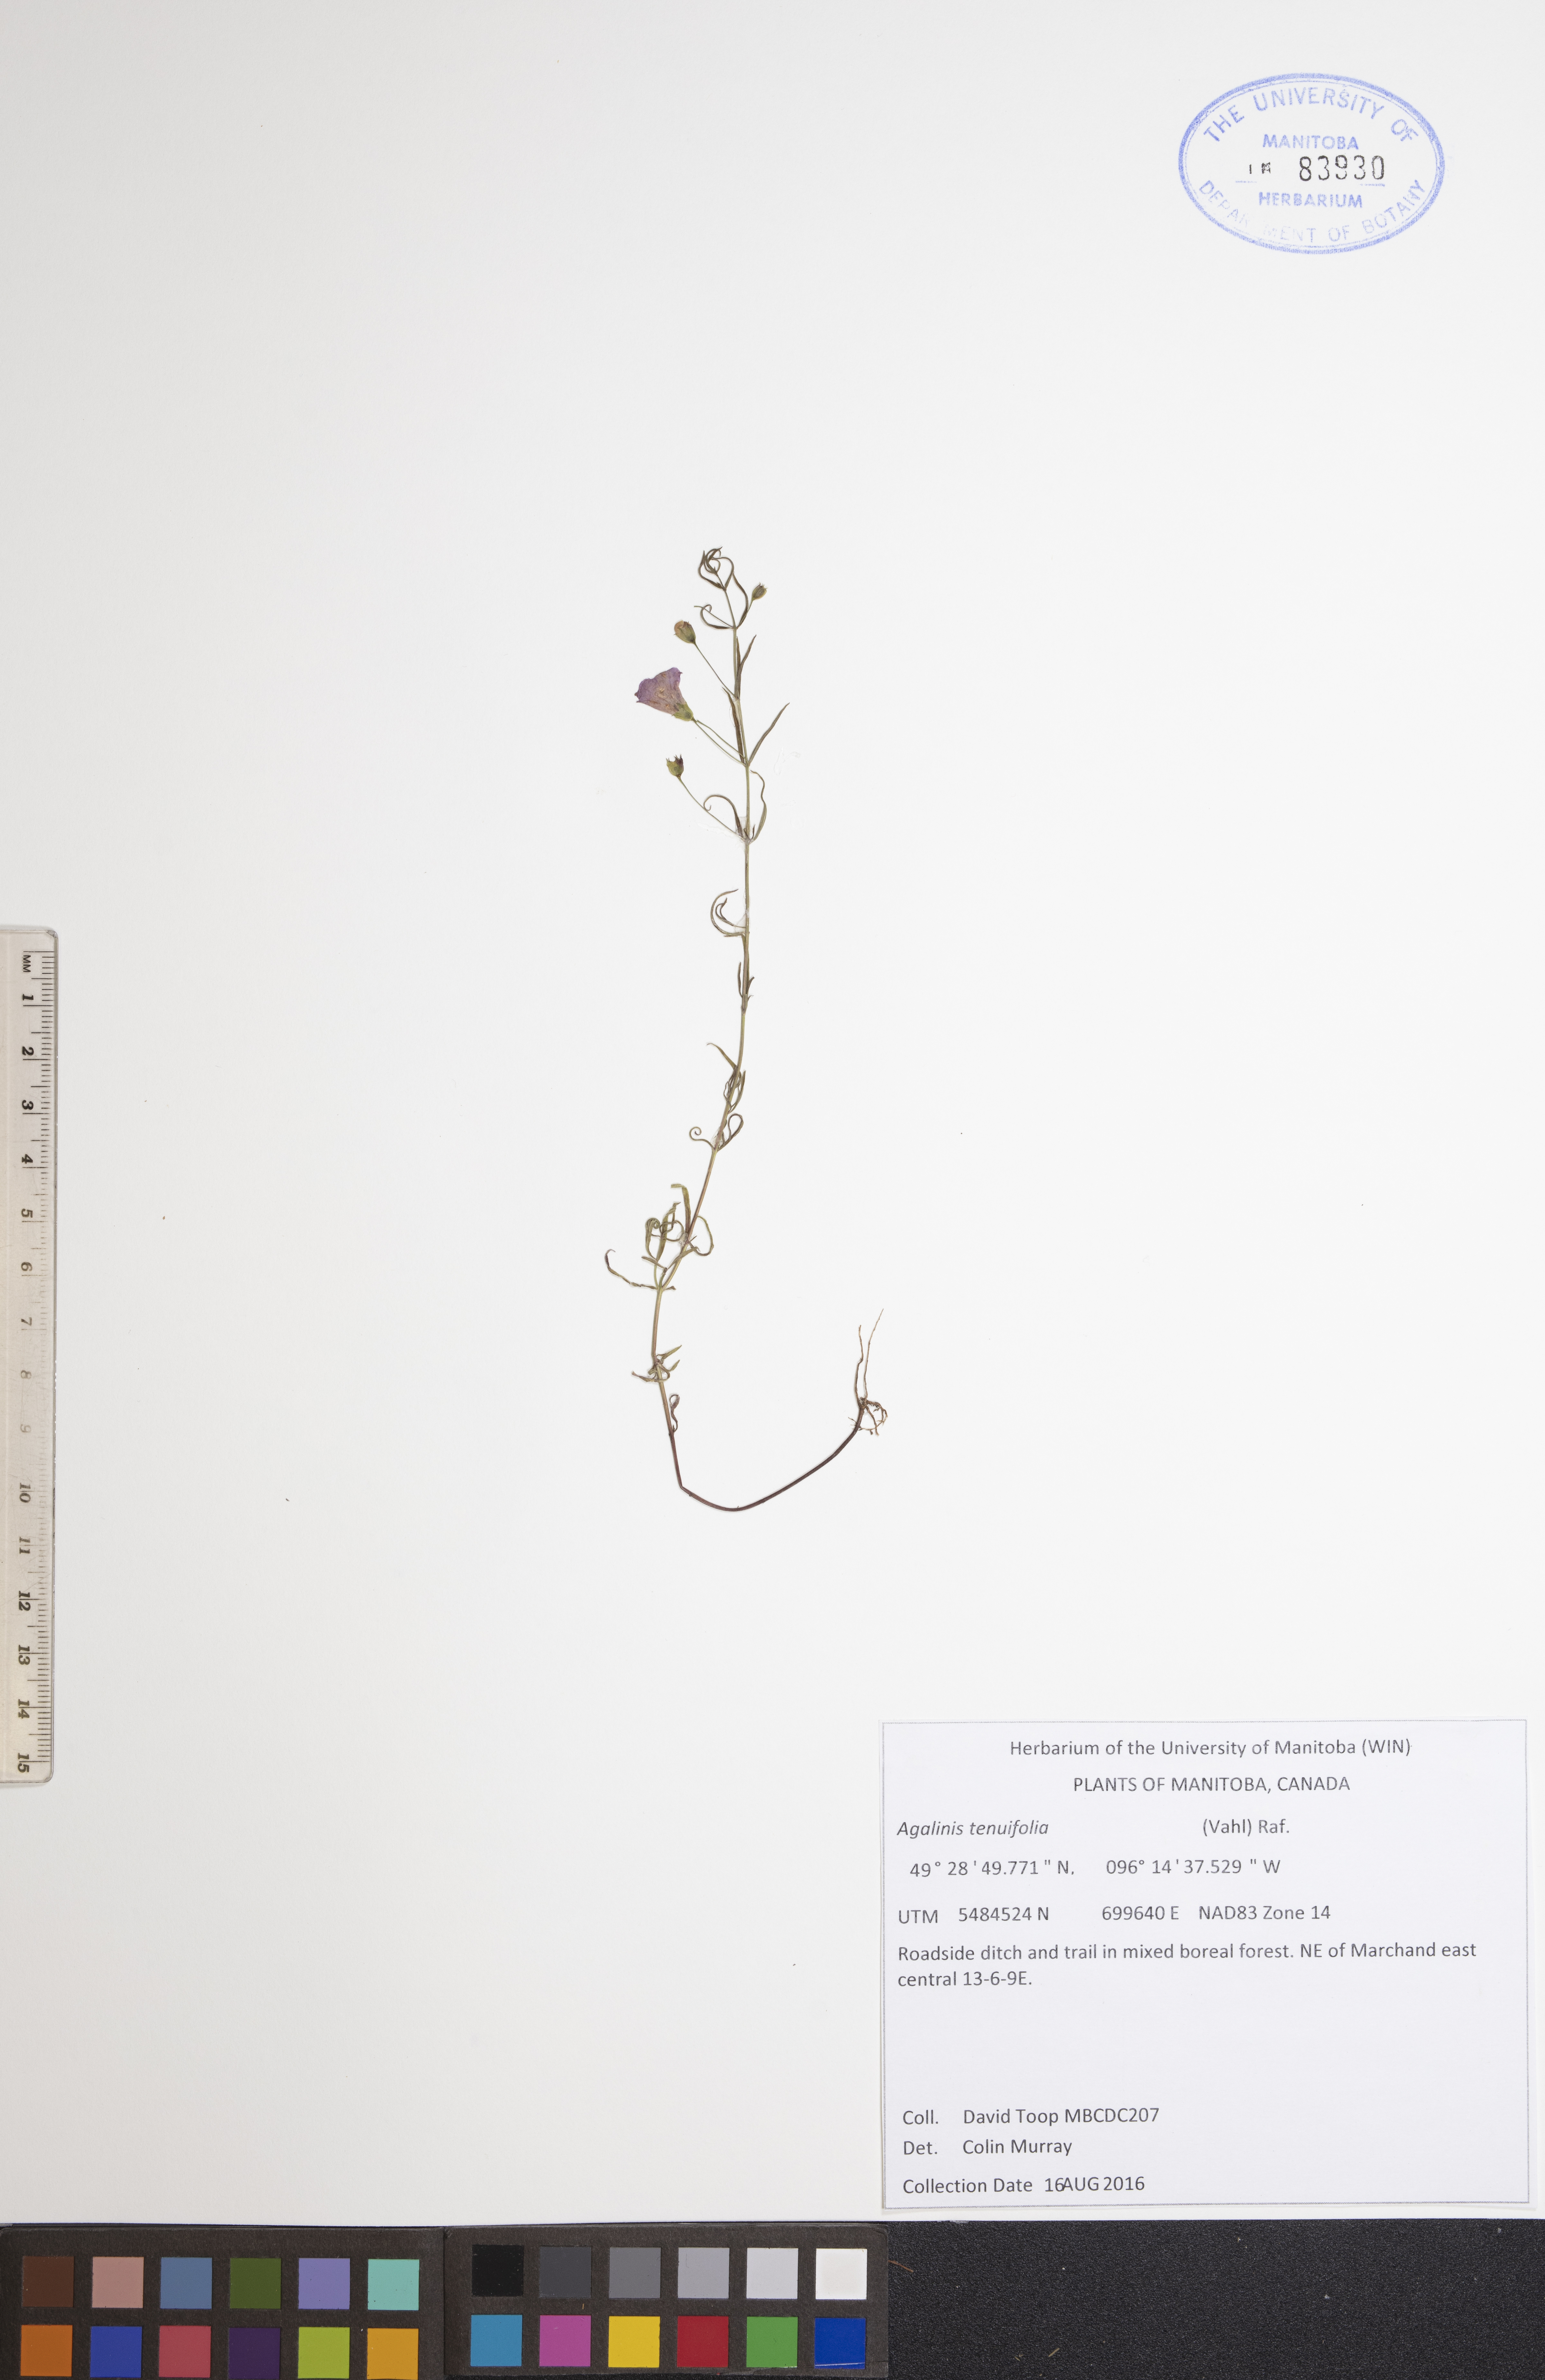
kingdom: Plantae
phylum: Tracheophyta
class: Magnoliopsida
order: Lamiales
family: Orobanchaceae
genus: Agalinis
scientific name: Agalinis tenuifolia
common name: Slender agalinis
